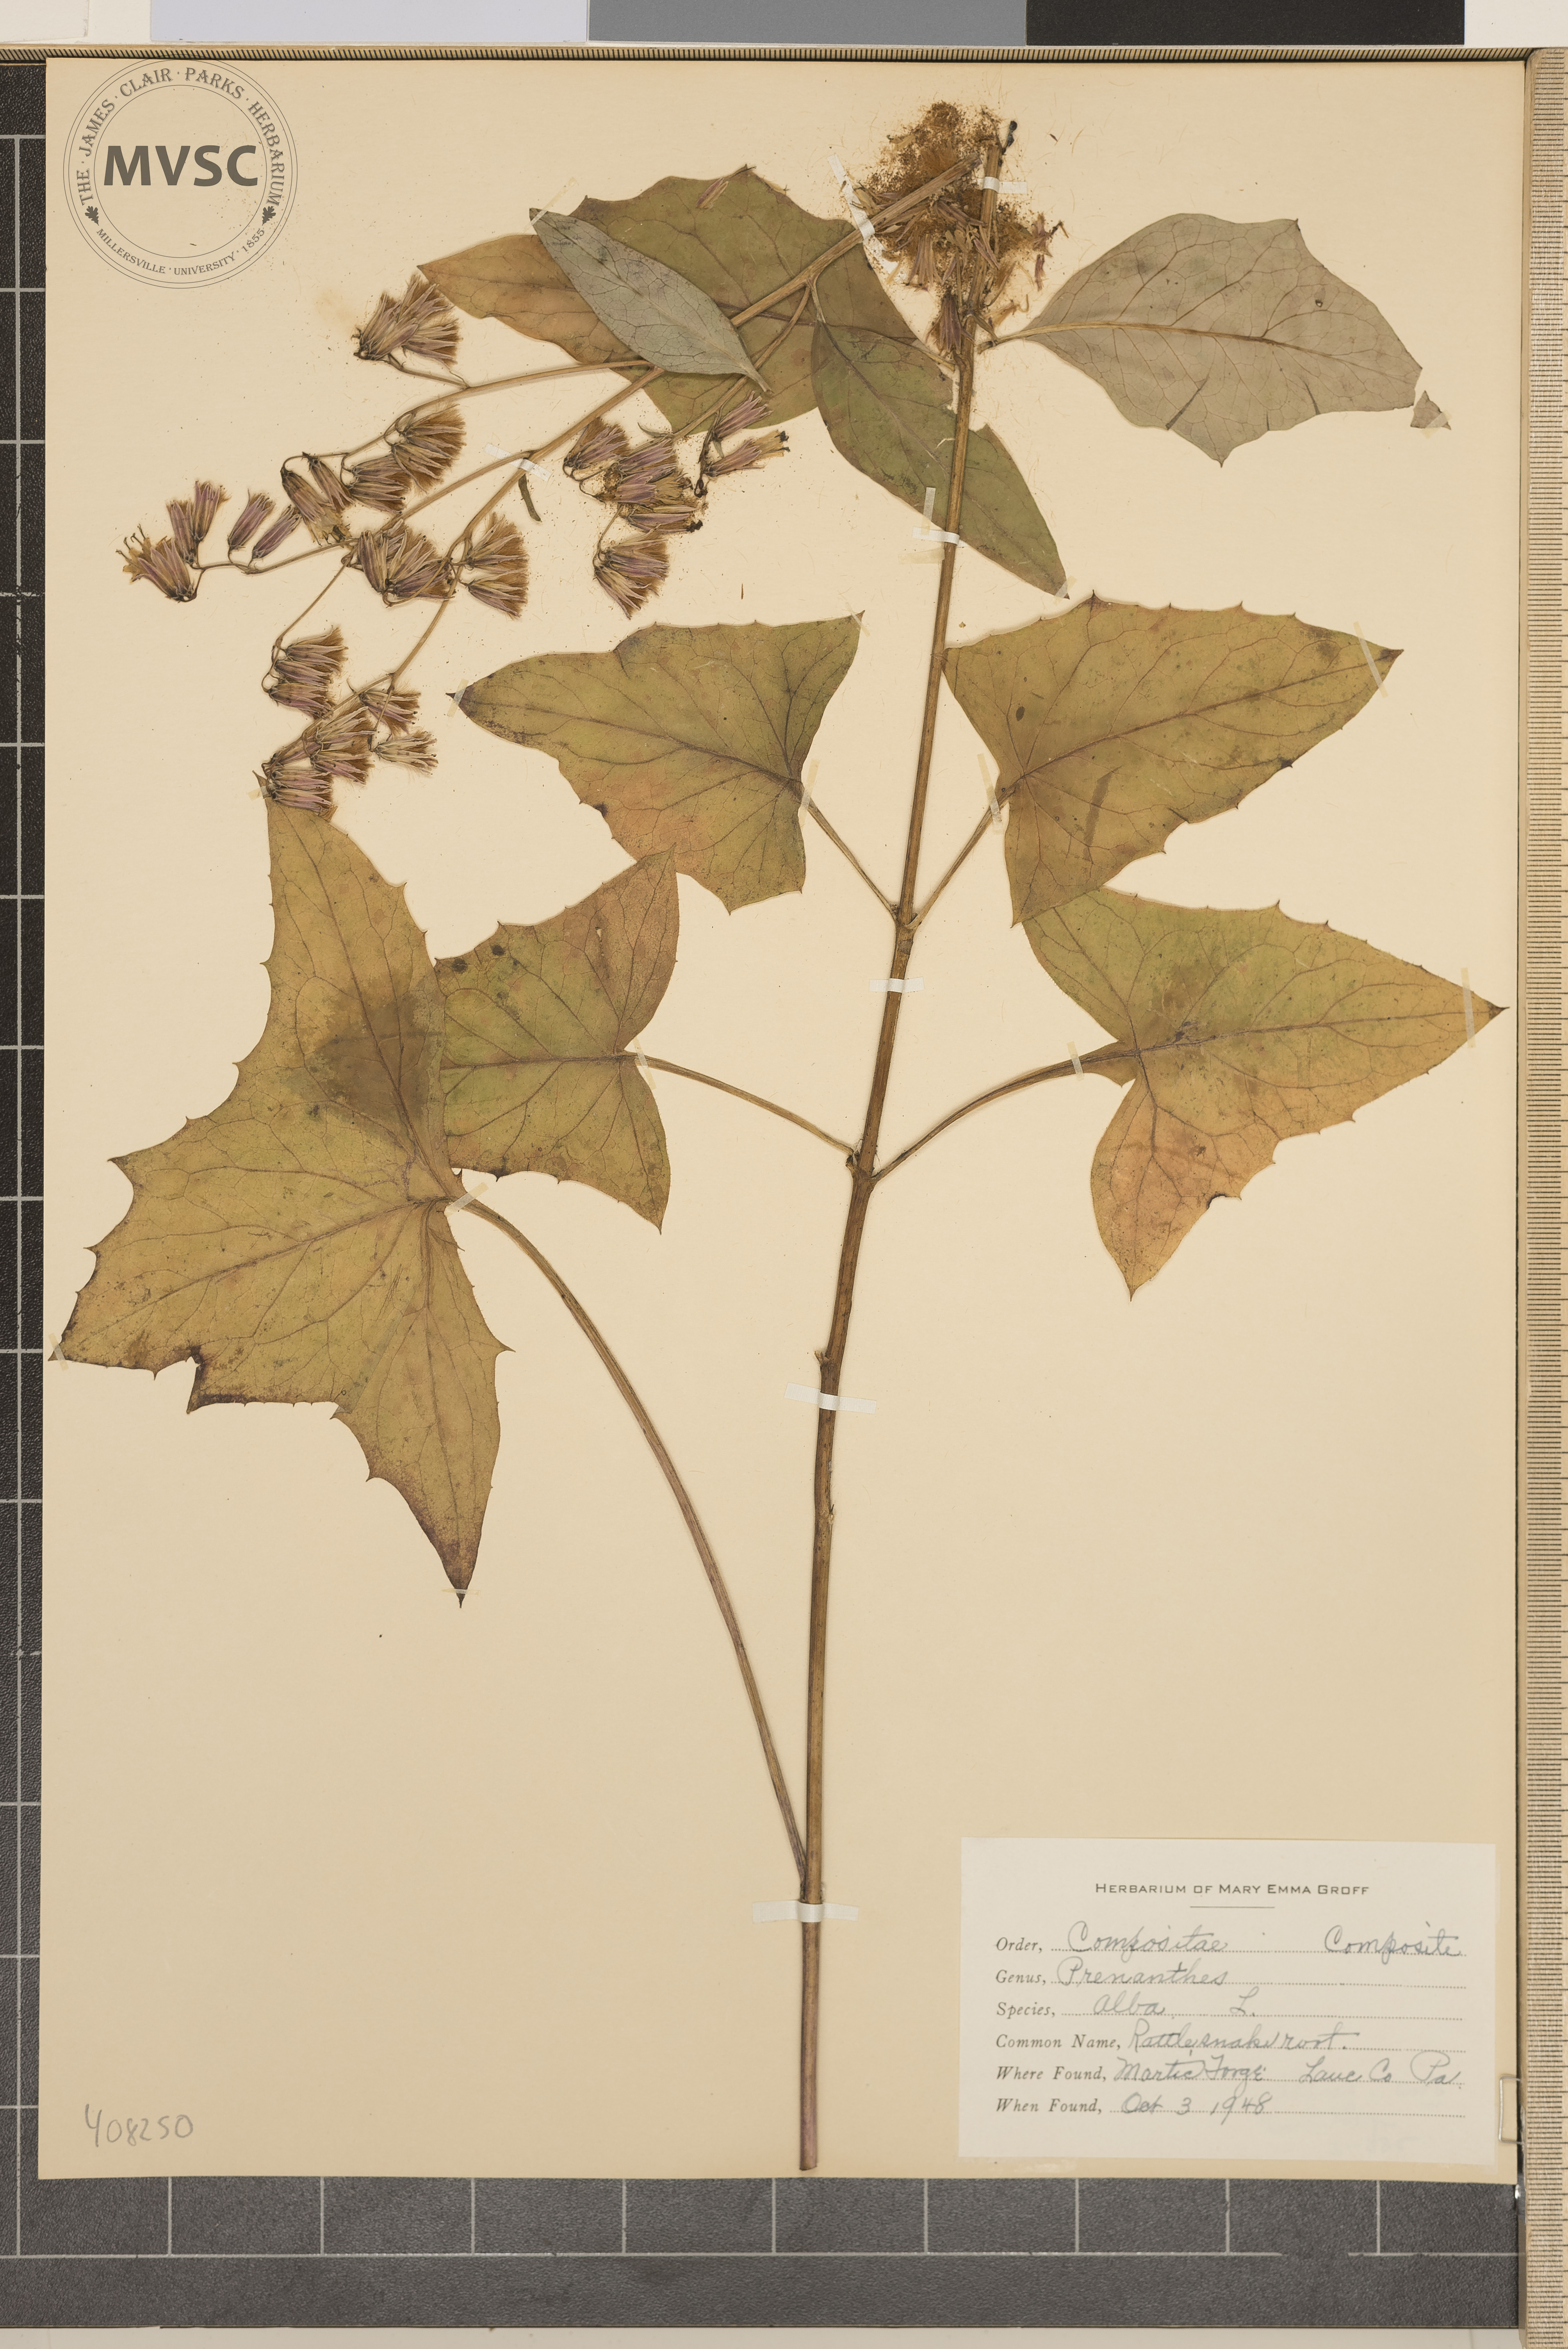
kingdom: Plantae
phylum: Tracheophyta
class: Magnoliopsida
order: Asterales
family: Asteraceae
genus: Nabalus
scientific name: Nabalus
